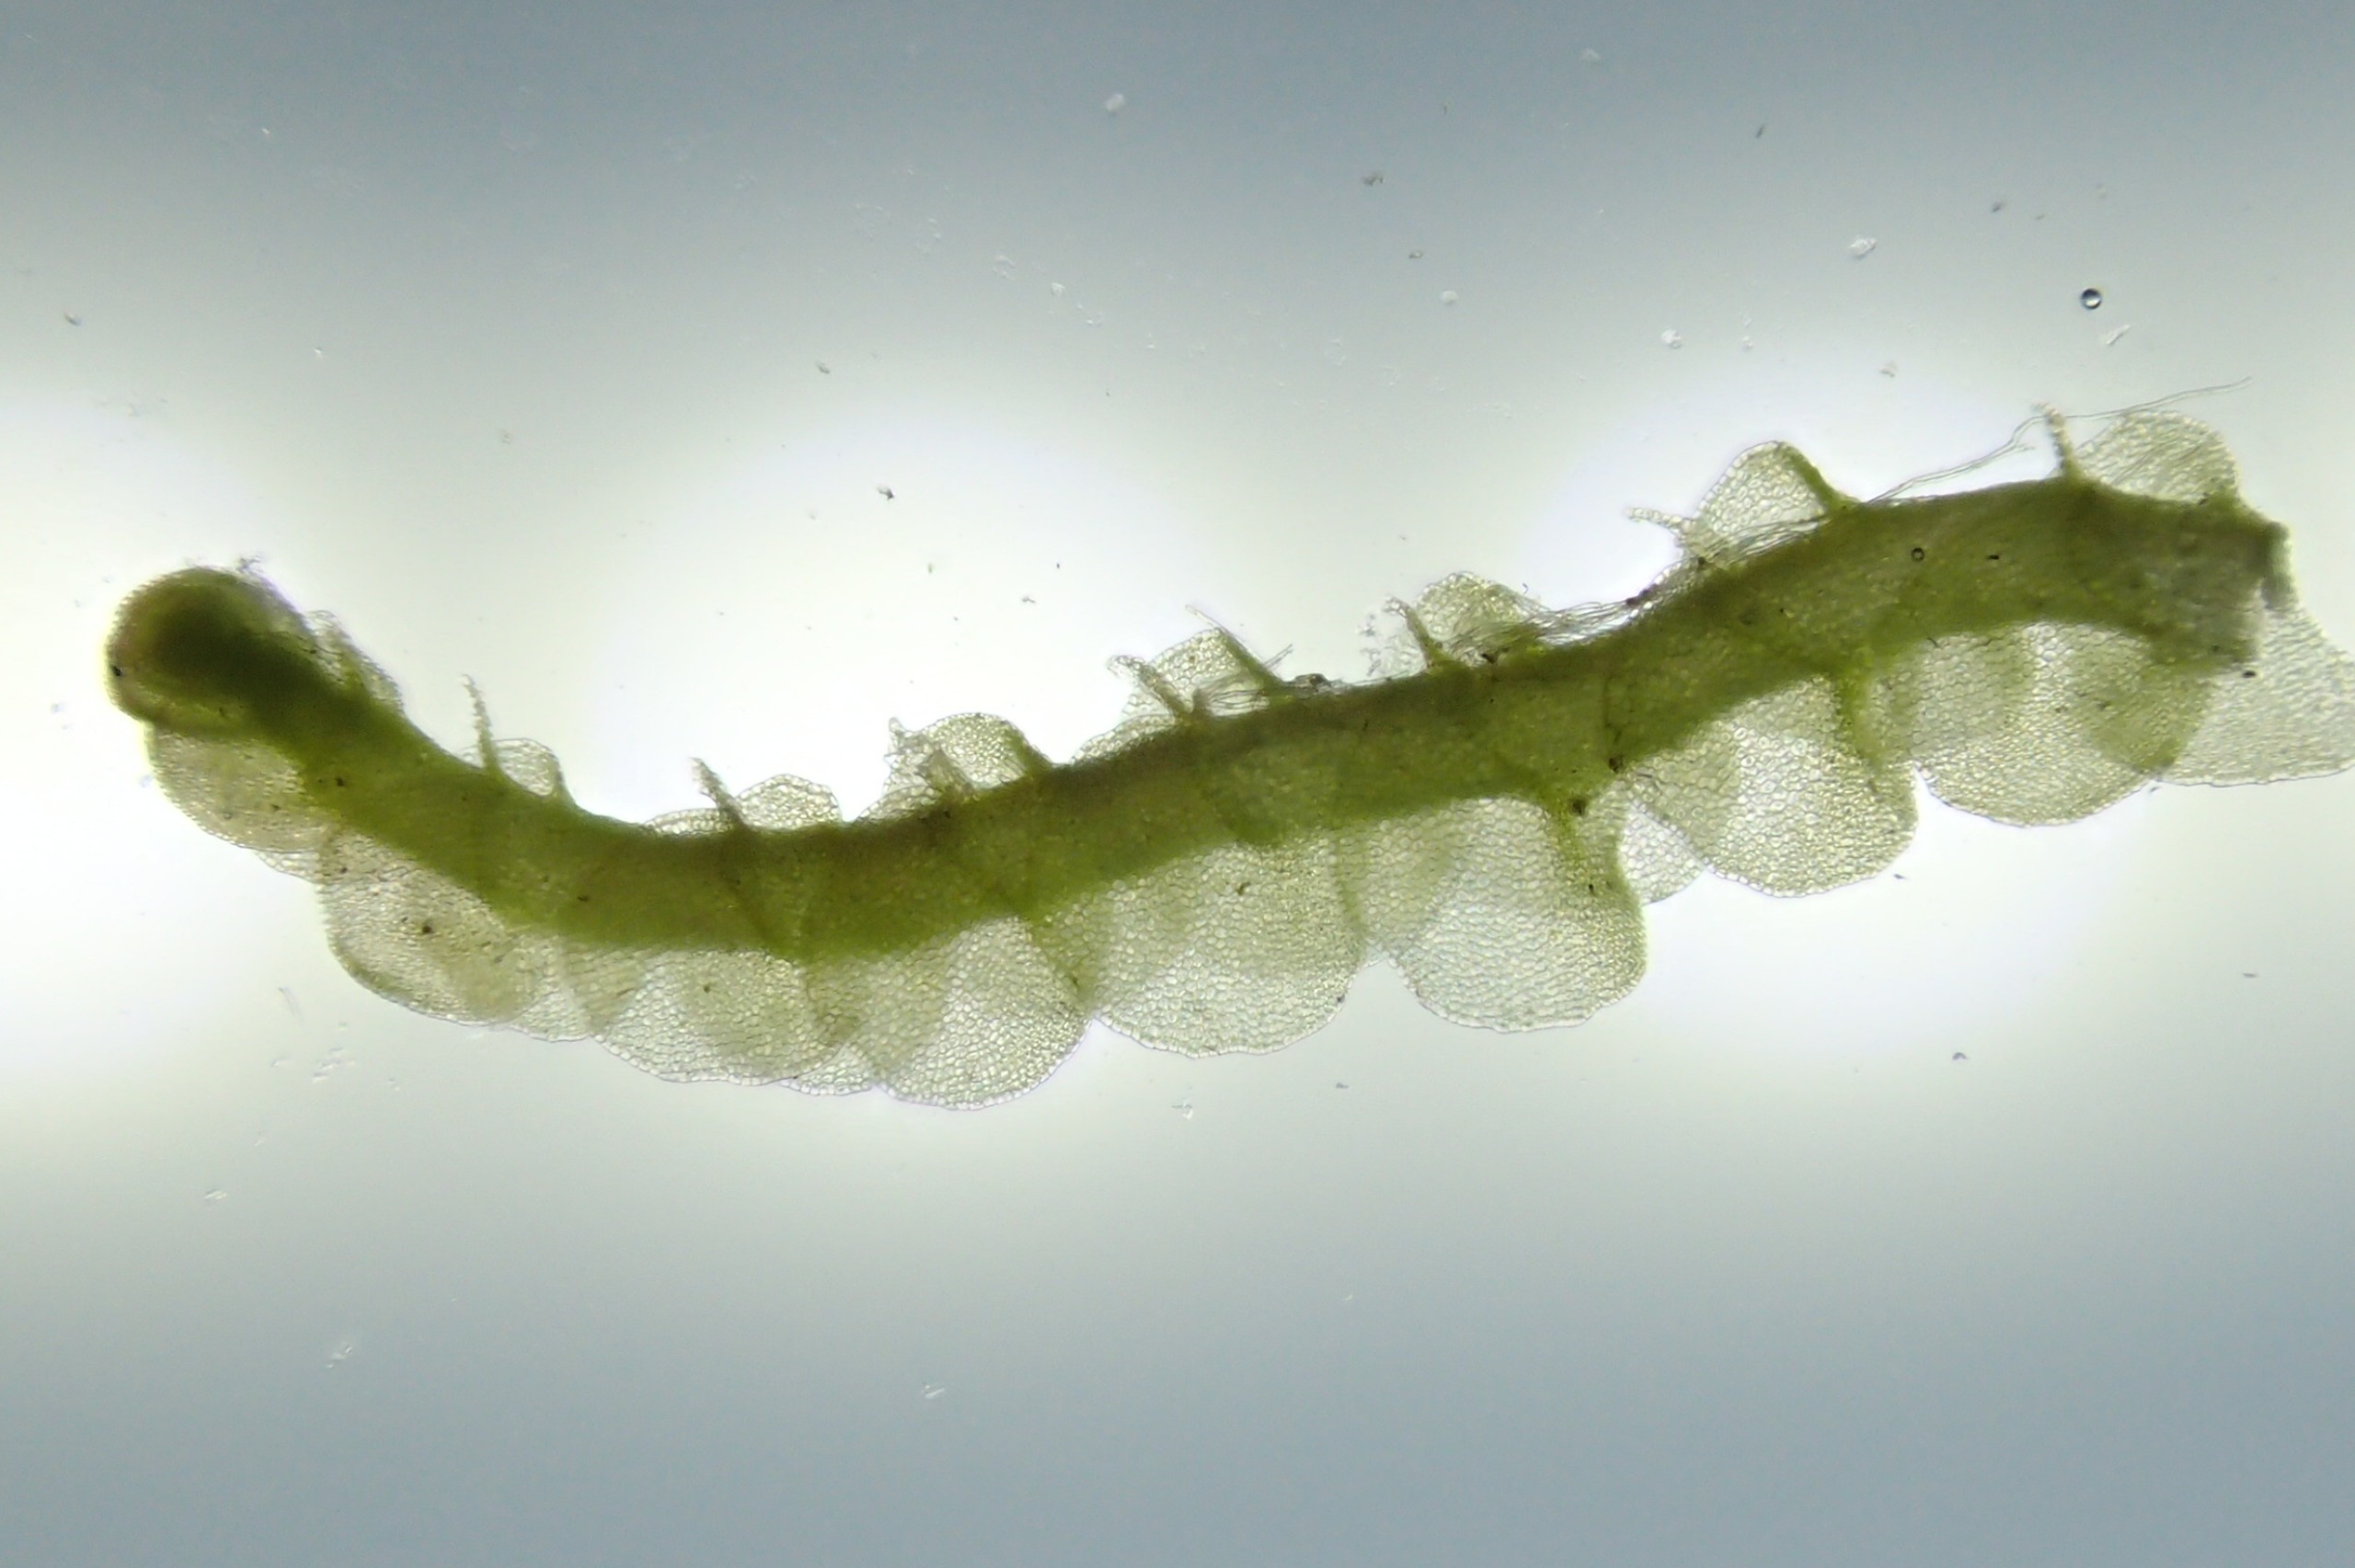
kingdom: Plantae
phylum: Marchantiophyta
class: Jungermanniopsida
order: Jungermanniales
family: Gymnomitriaceae
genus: Nardia
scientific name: Nardia scalaris
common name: Tæt kappesvøb
